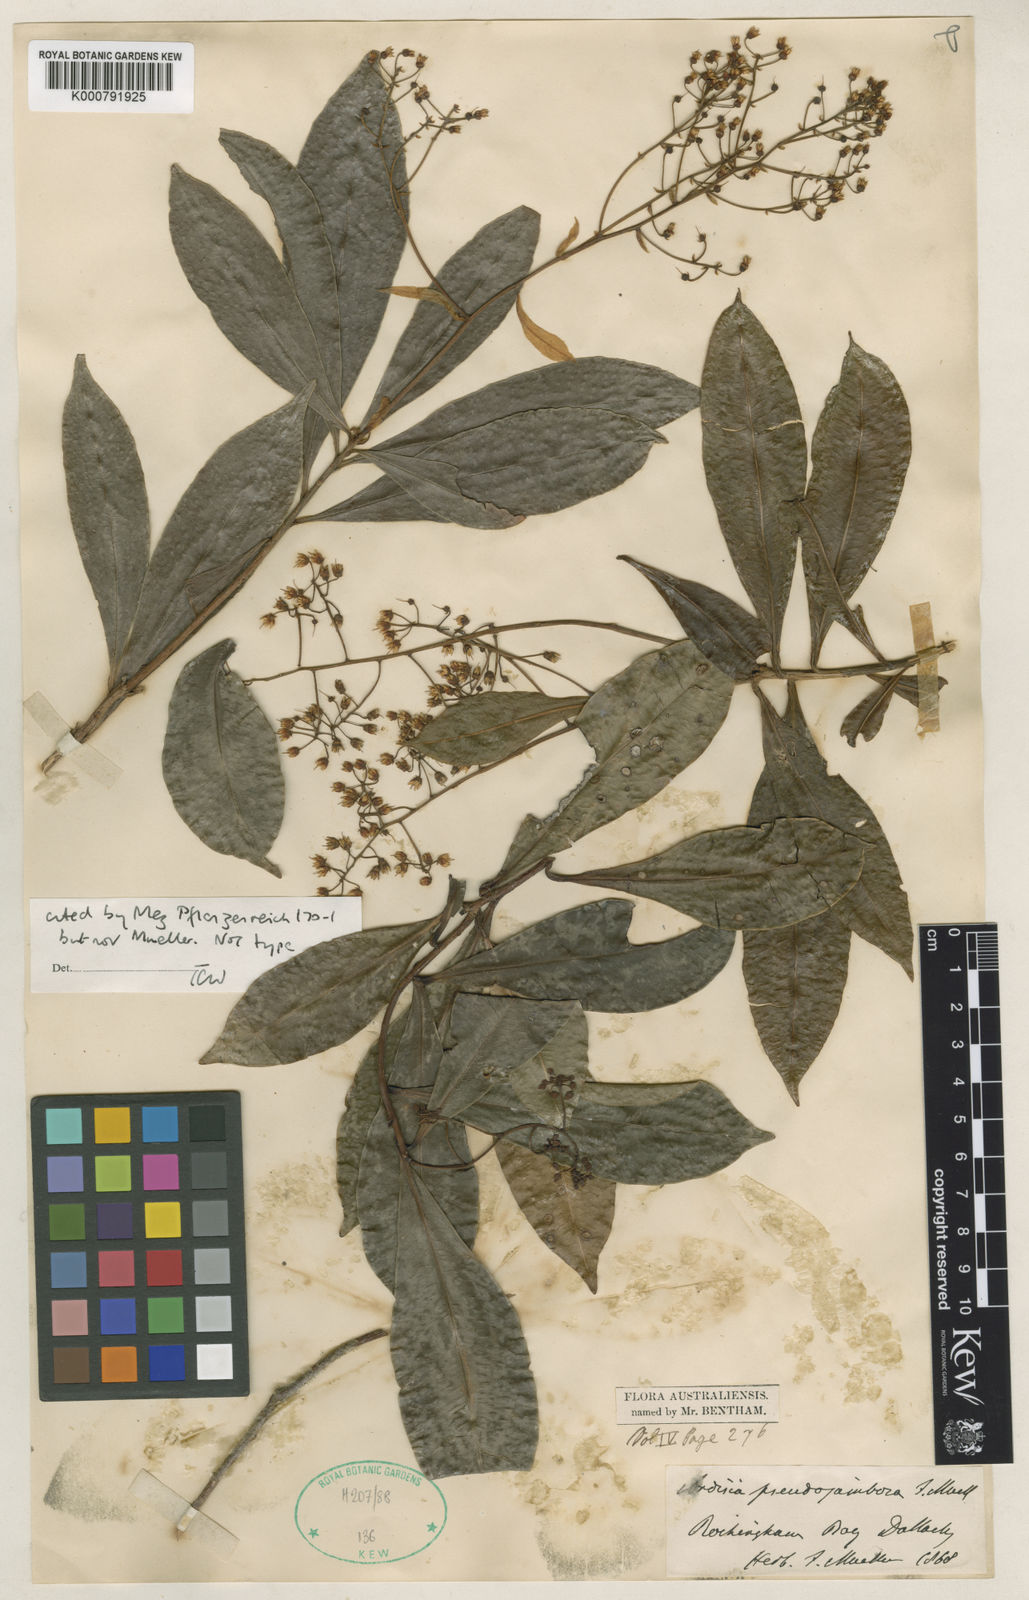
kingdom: Plantae
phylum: Tracheophyta
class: Magnoliopsida
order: Ericales
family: Primulaceae
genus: Tapeinosperma
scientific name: Tapeinosperma pseudojambosa
